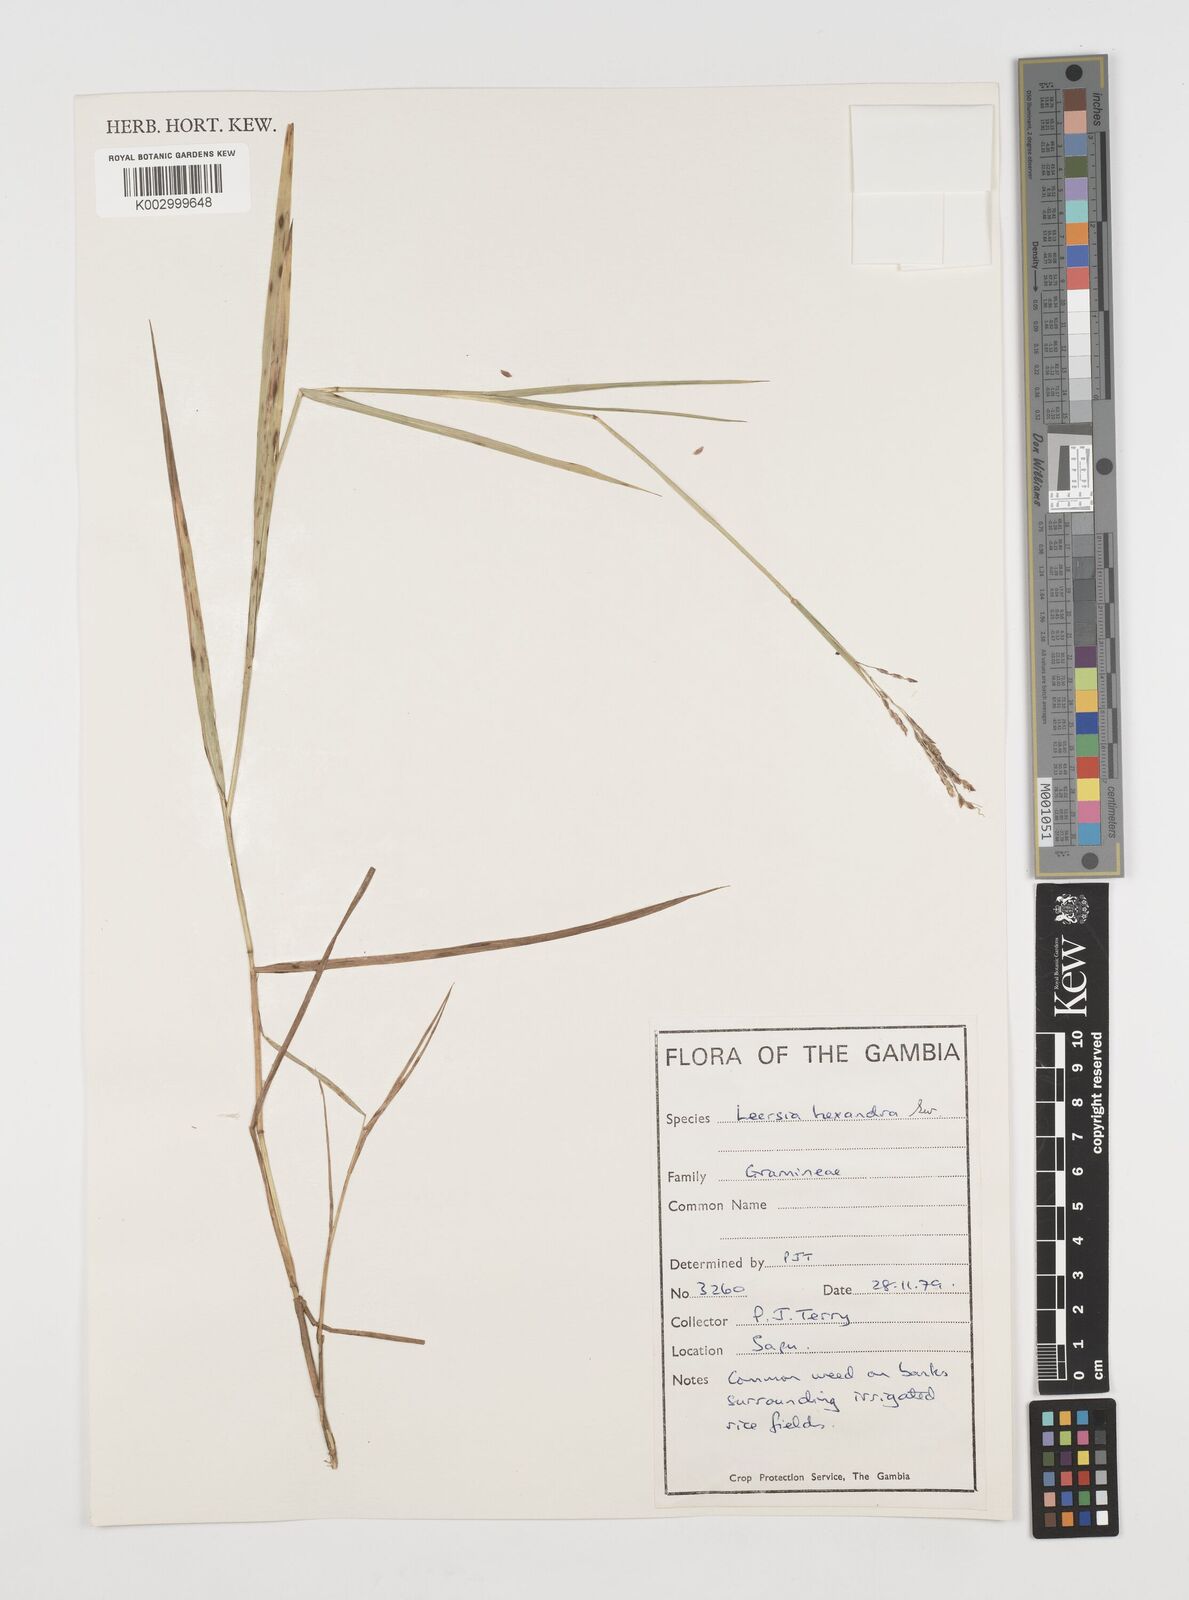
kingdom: Plantae
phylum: Tracheophyta
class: Liliopsida
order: Poales
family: Poaceae
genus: Leersia
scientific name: Leersia hexandra
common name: Southern cut grass
